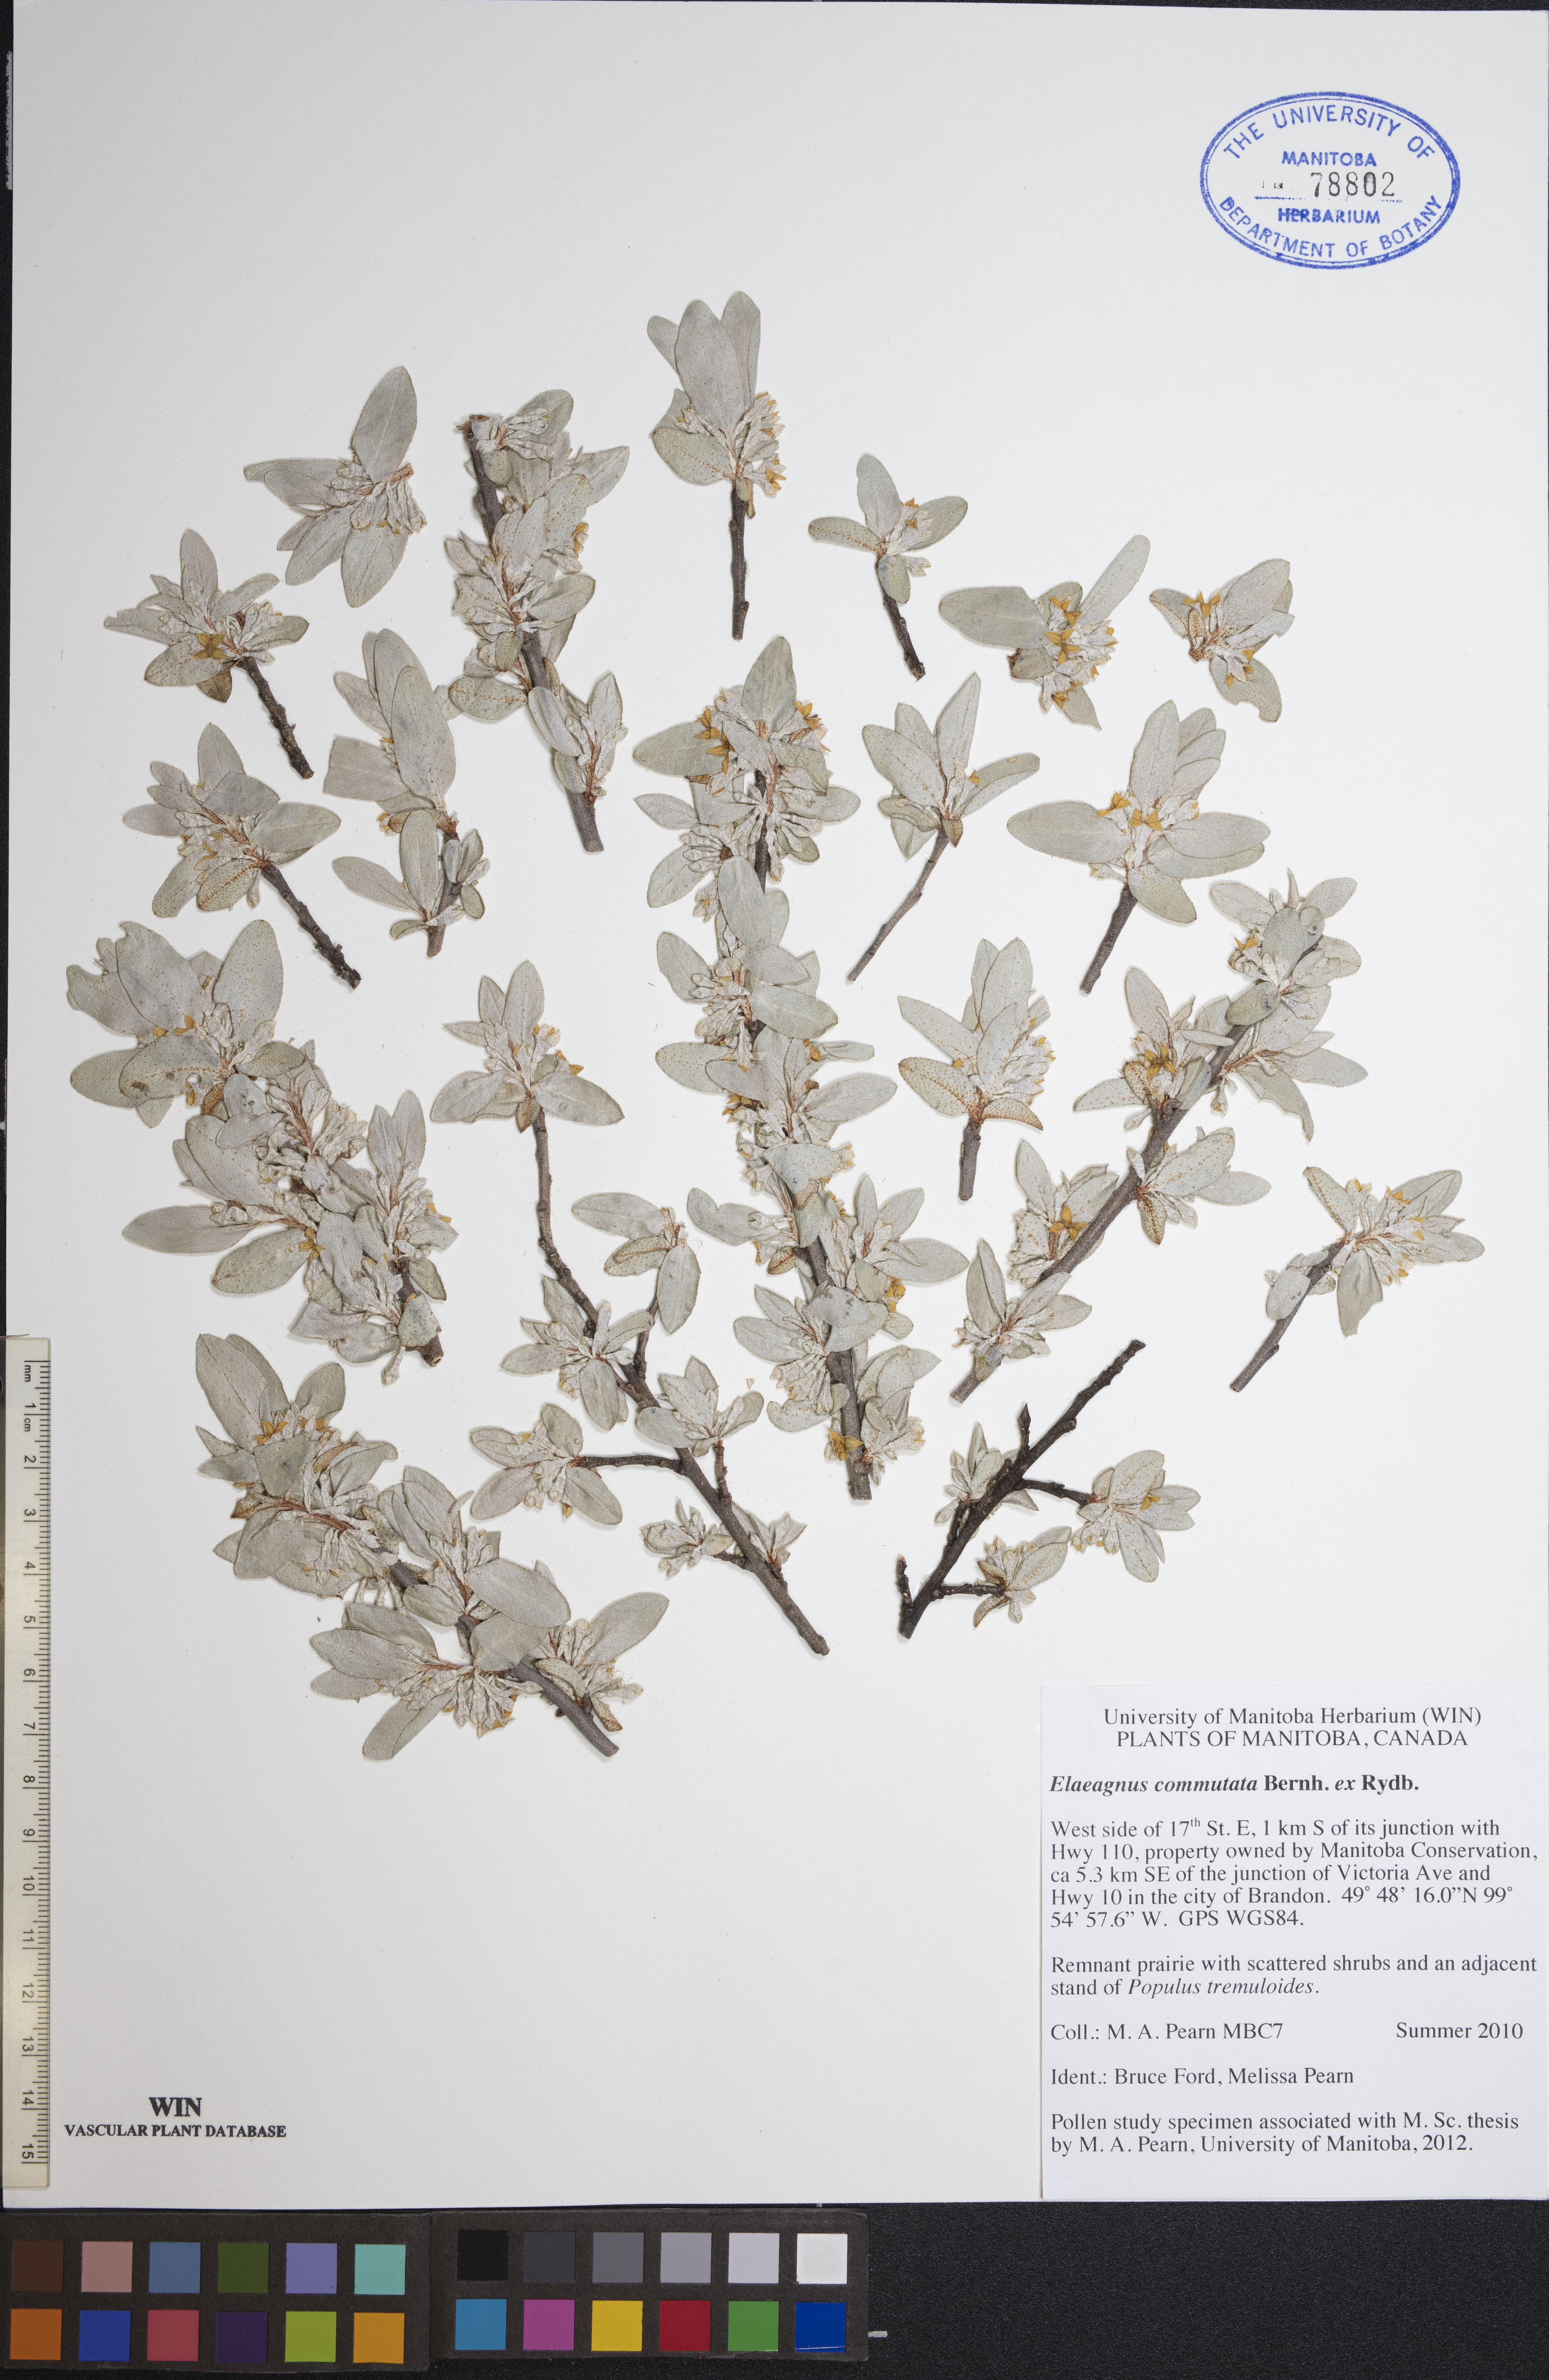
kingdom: Plantae
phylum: Tracheophyta
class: Magnoliopsida
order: Rosales
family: Elaeagnaceae
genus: Elaeagnus
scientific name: Elaeagnus commutata
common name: Silverberry
